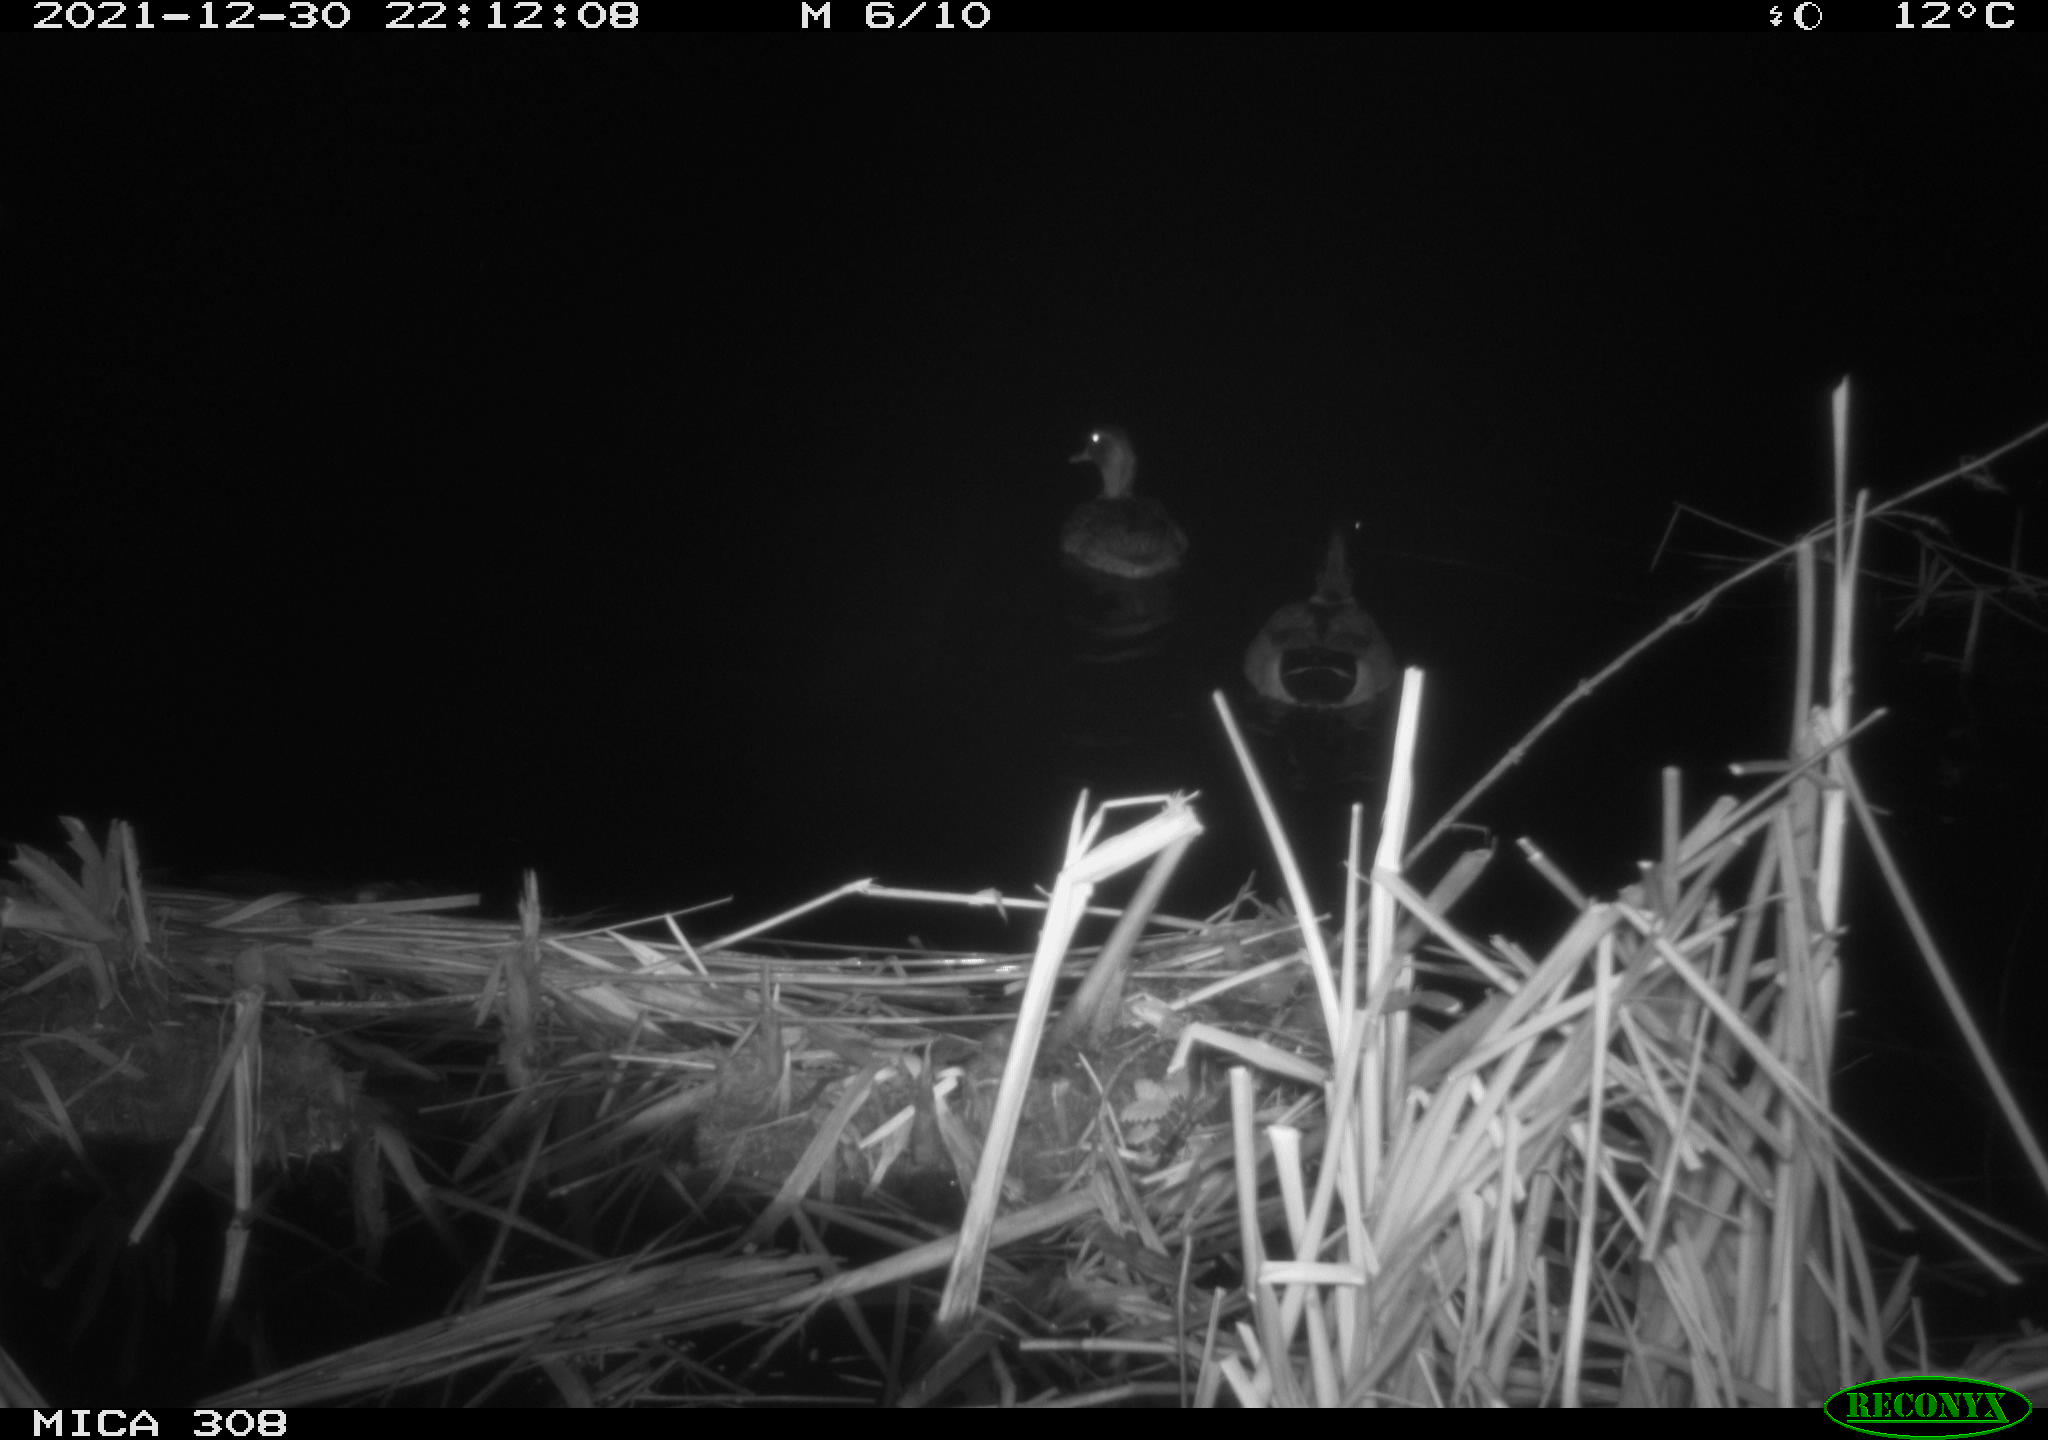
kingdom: Animalia
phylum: Chordata
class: Aves
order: Anseriformes
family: Anatidae
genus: Anas
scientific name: Anas platyrhynchos
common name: Mallard
